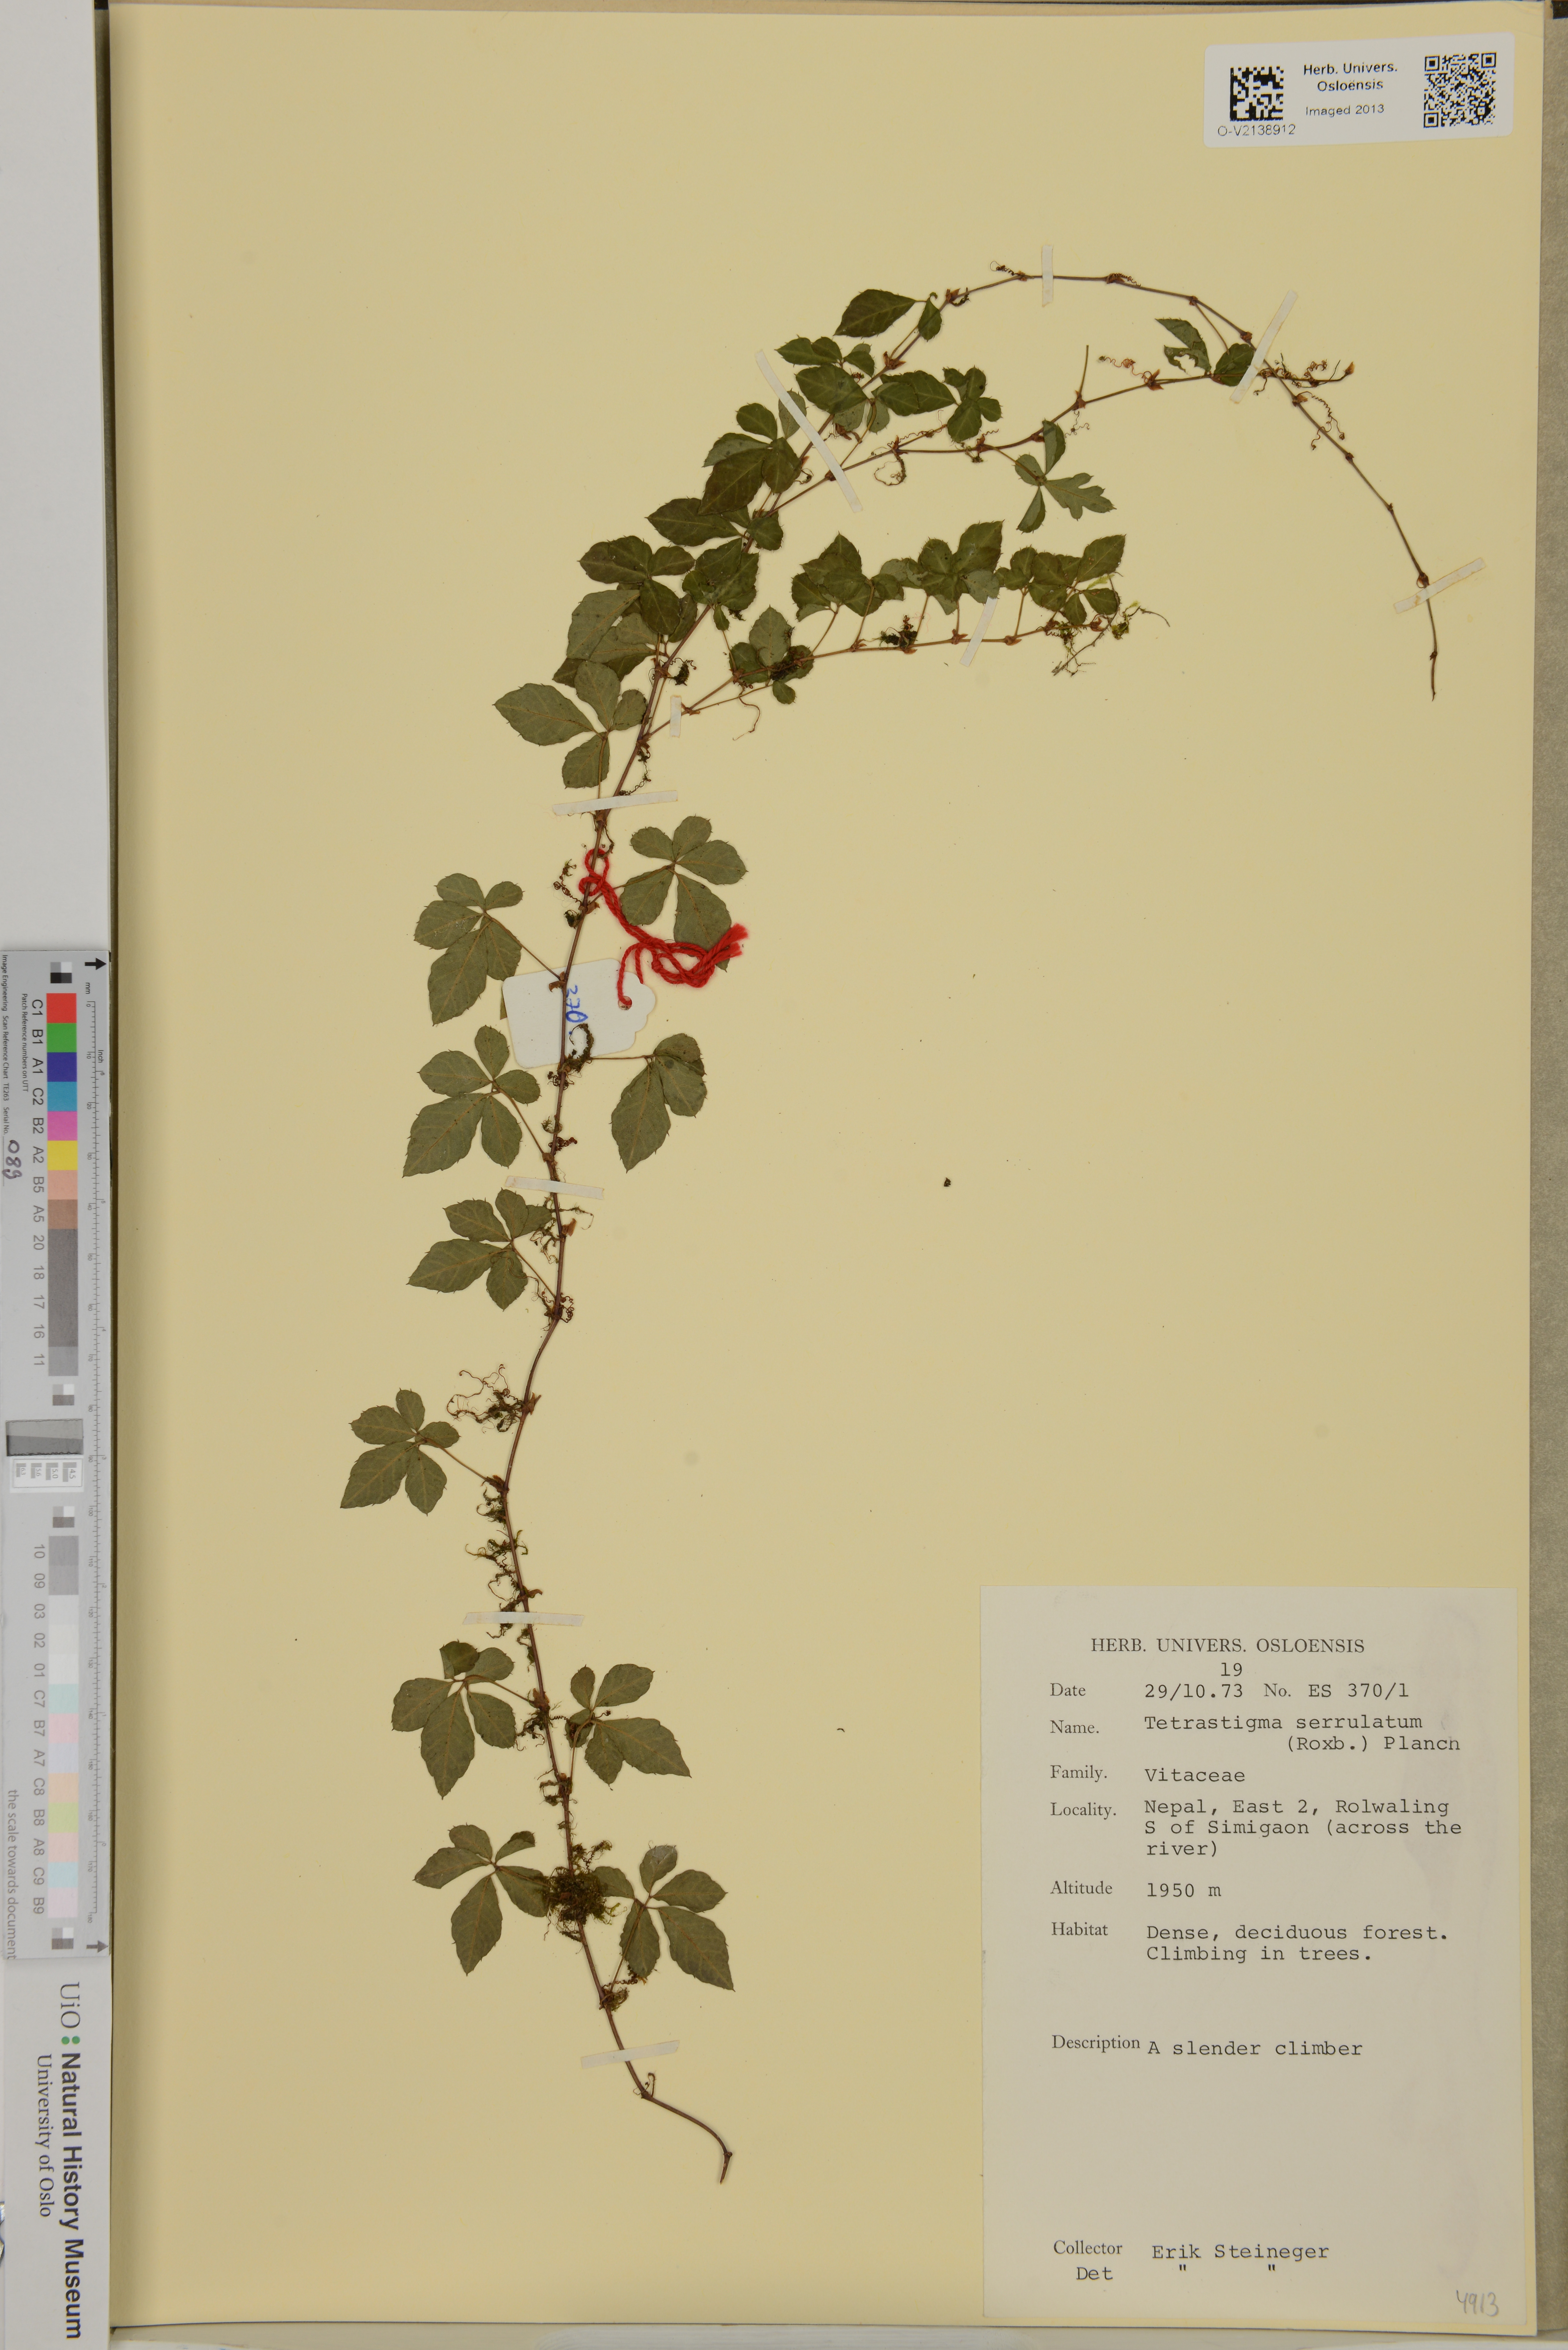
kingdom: Plantae
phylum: Tracheophyta
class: Magnoliopsida
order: Vitales
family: Vitaceae
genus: Tetrastigma
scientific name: Tetrastigma serrulatum
